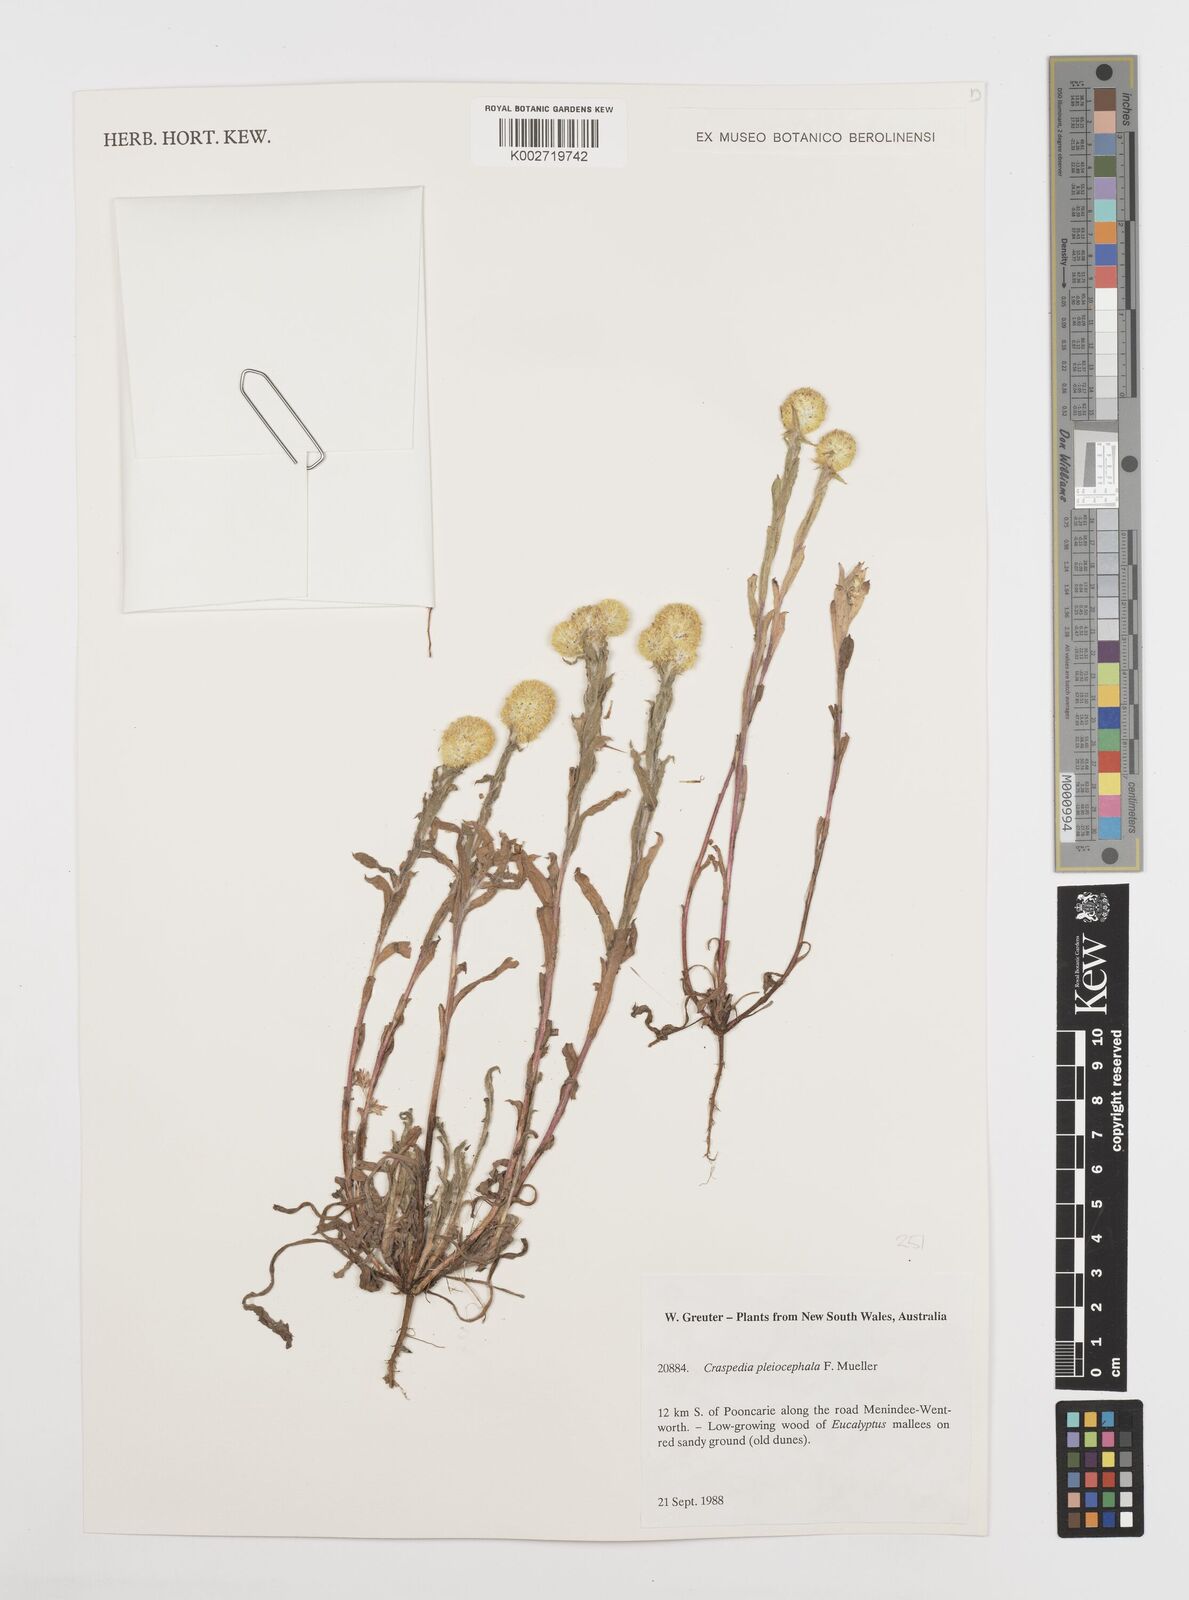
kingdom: Plantae
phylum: Tracheophyta
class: Magnoliopsida
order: Asterales
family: Asteraceae
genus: Pycnosorus
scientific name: Pycnosorus pleiocephalus
